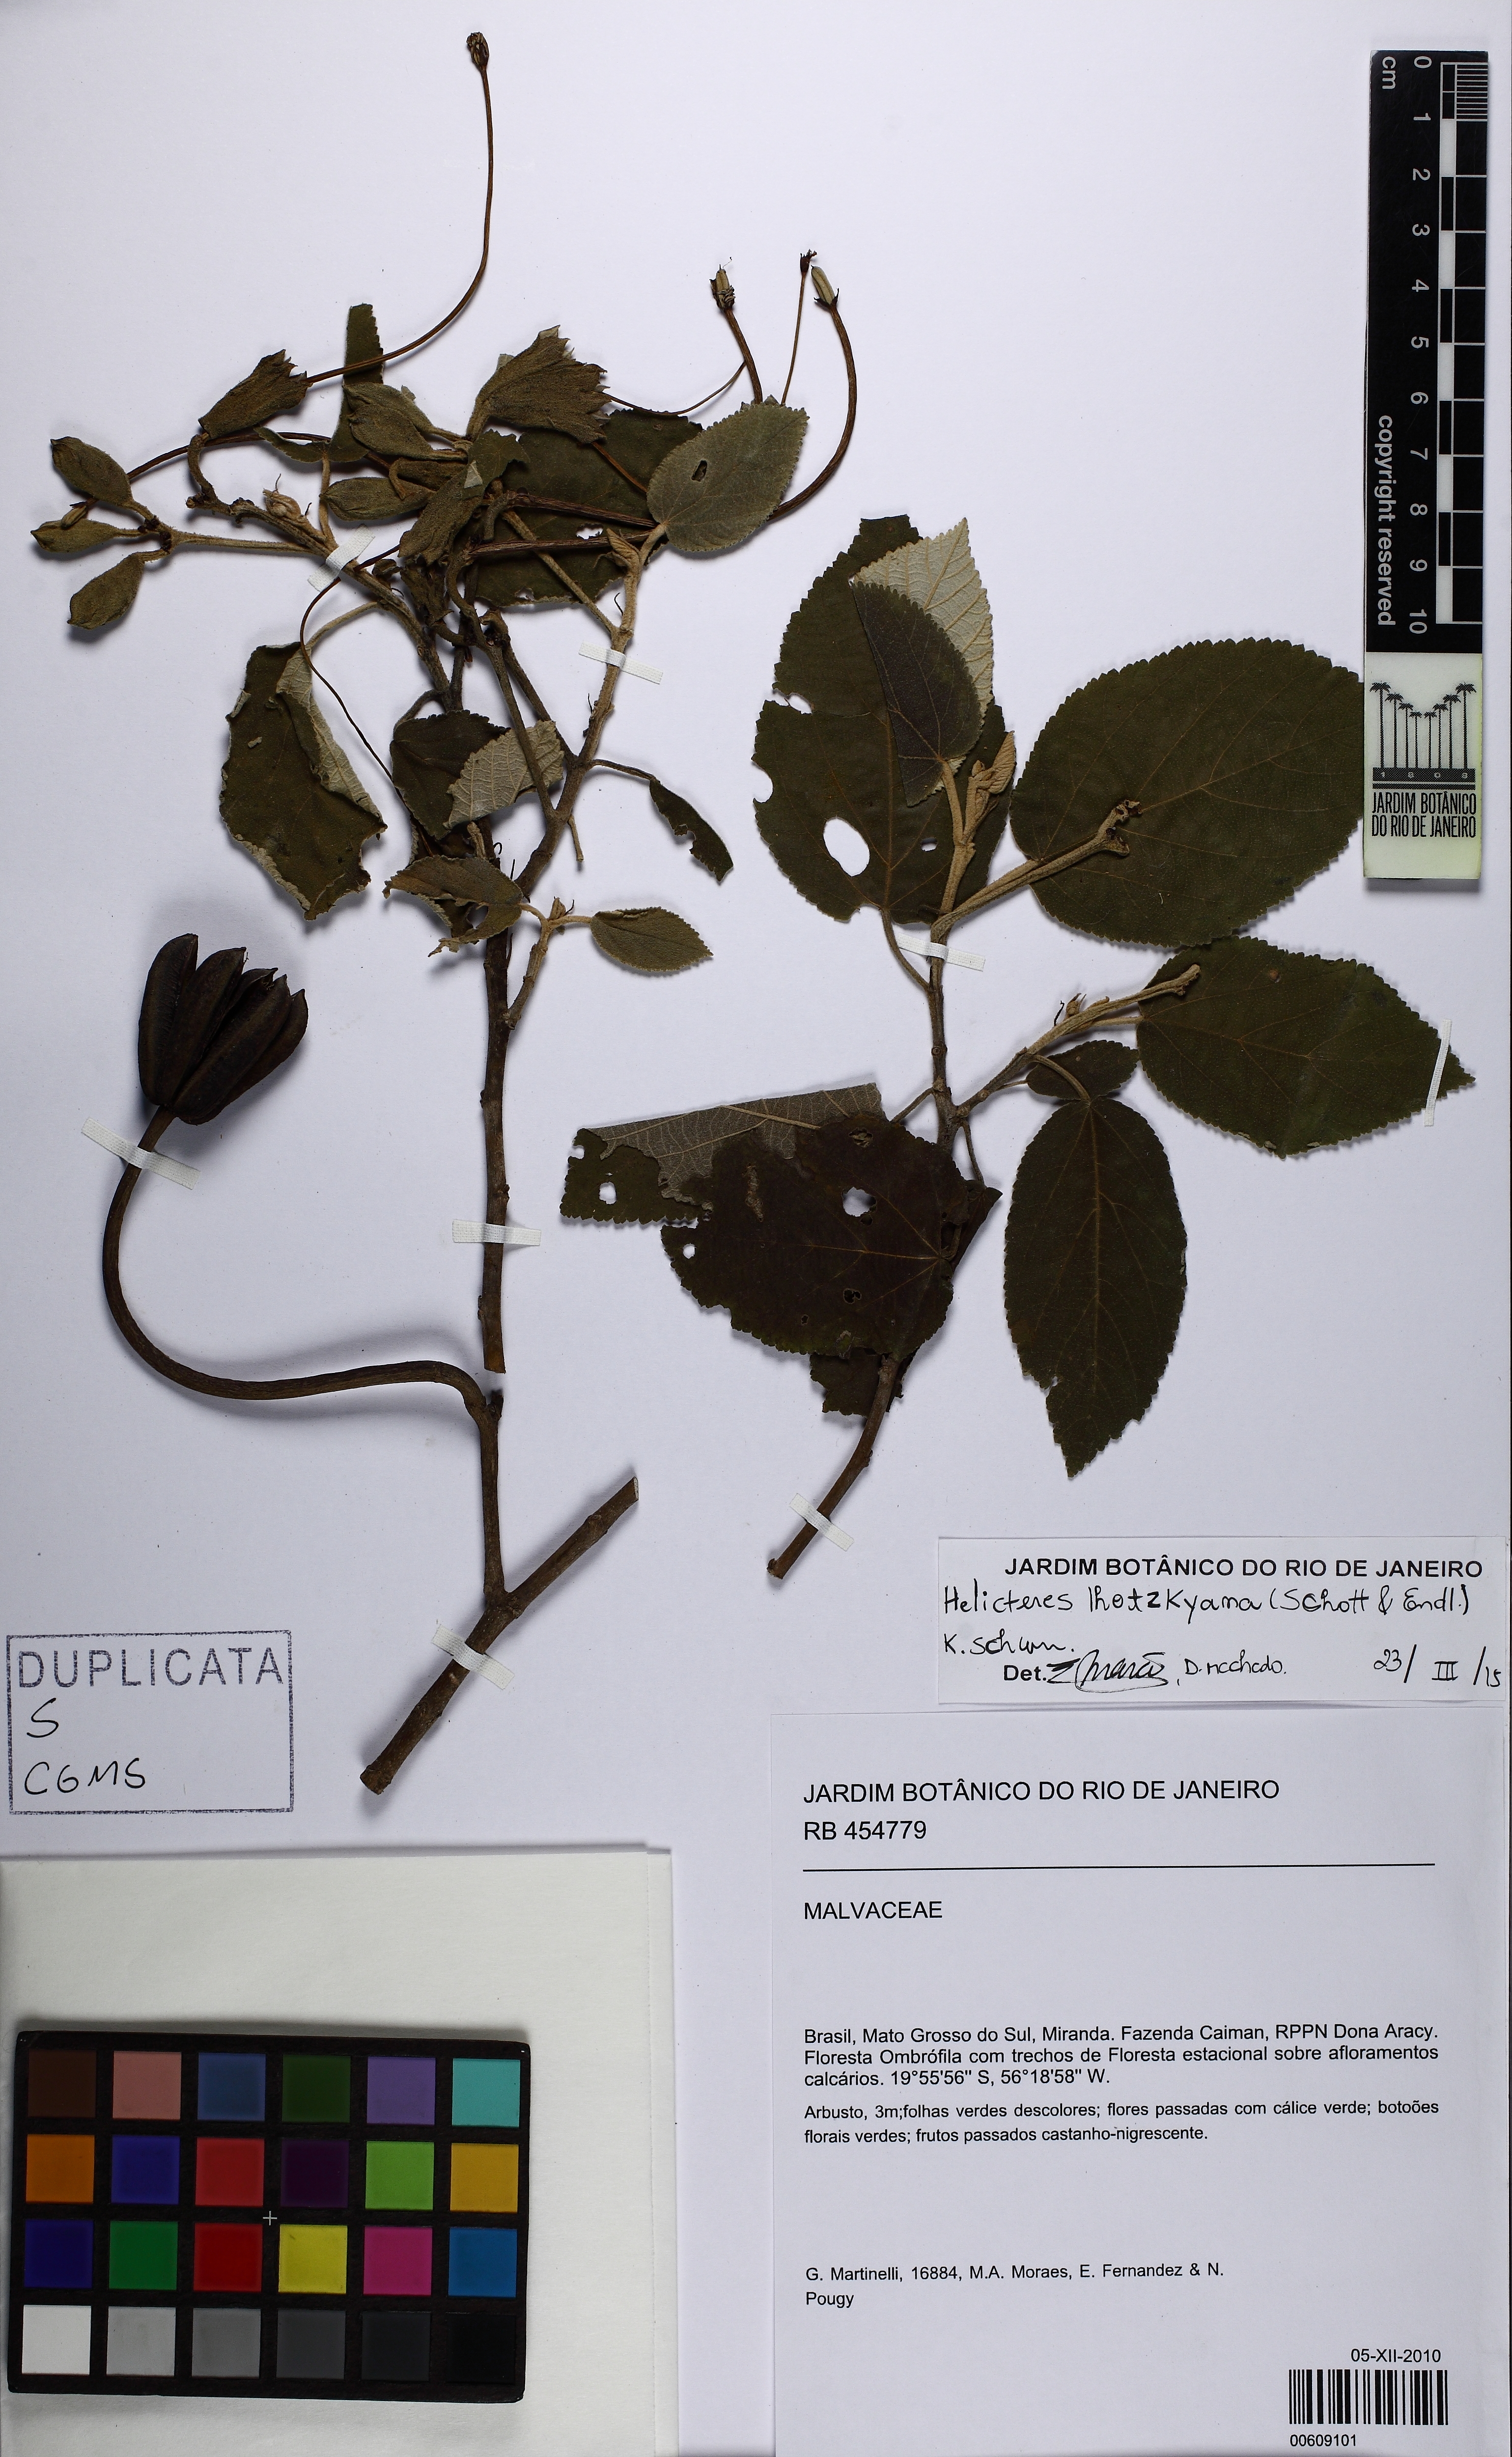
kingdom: Plantae
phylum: Tracheophyta
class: Magnoliopsida
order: Malvales
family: Malvaceae
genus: Helicteres
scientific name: Helicteres lhotzkyana
